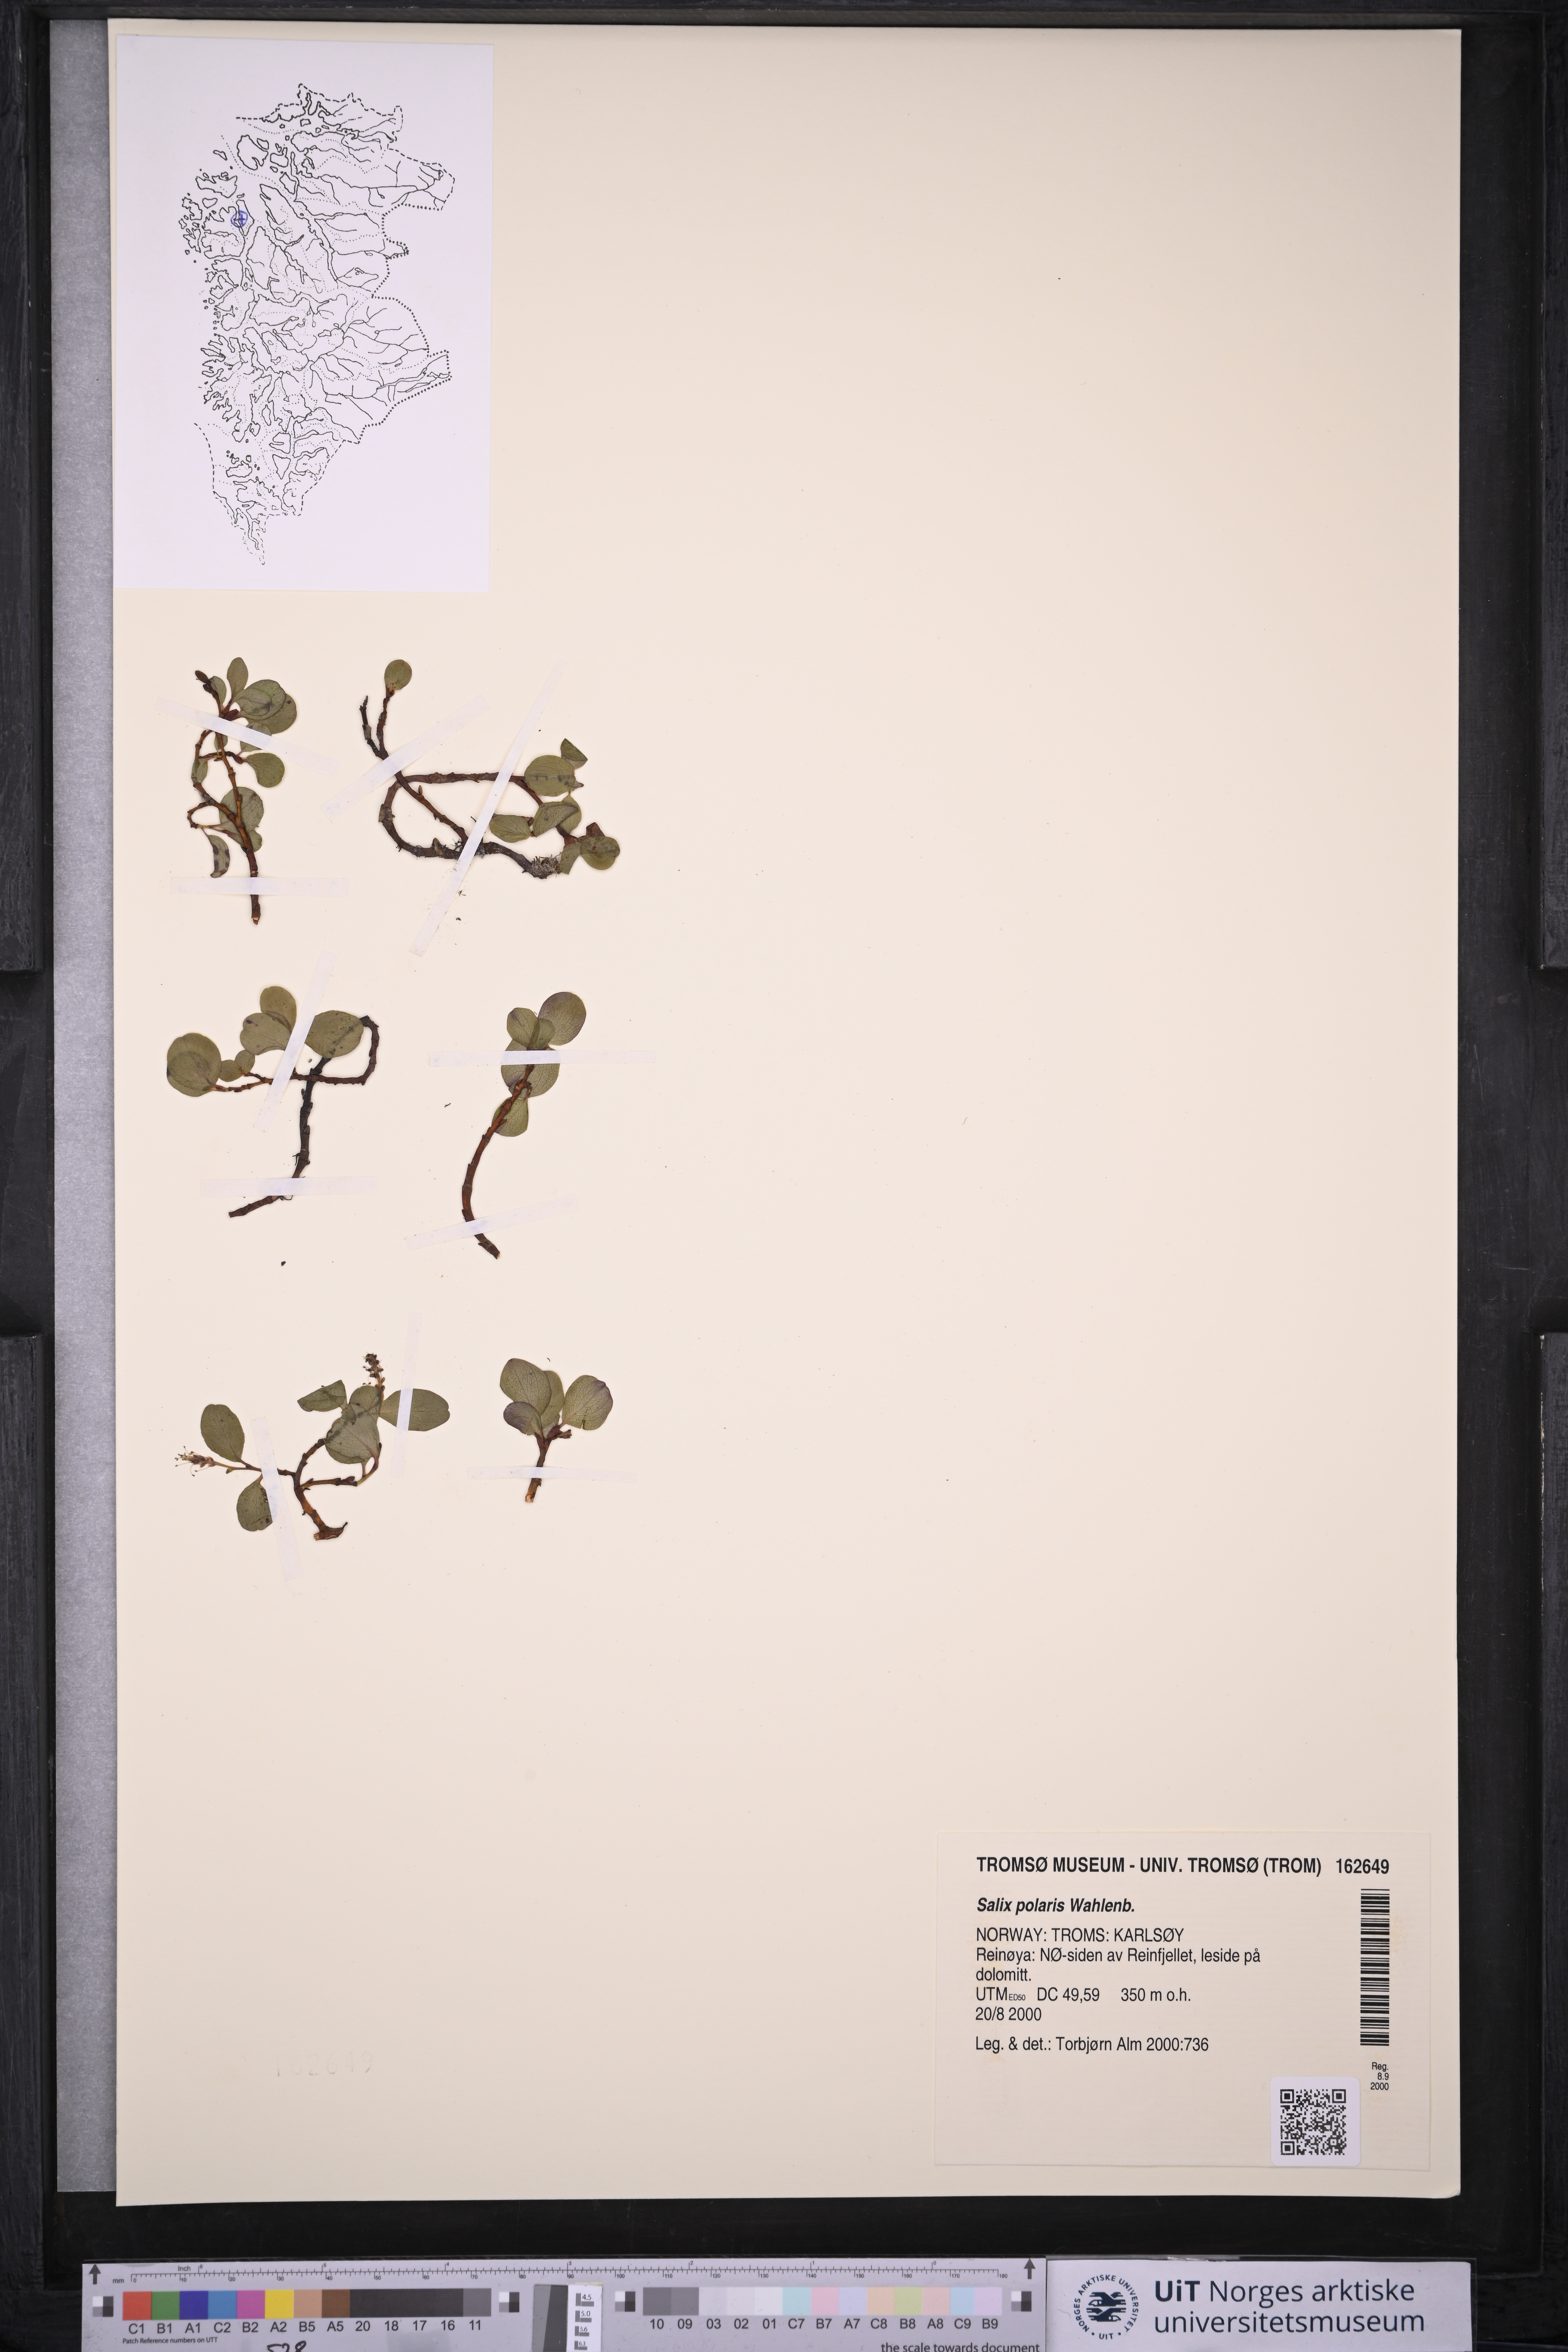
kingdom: Plantae
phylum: Tracheophyta
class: Magnoliopsida
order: Malpighiales
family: Salicaceae
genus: Salix
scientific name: Salix polaris
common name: Polar willow
